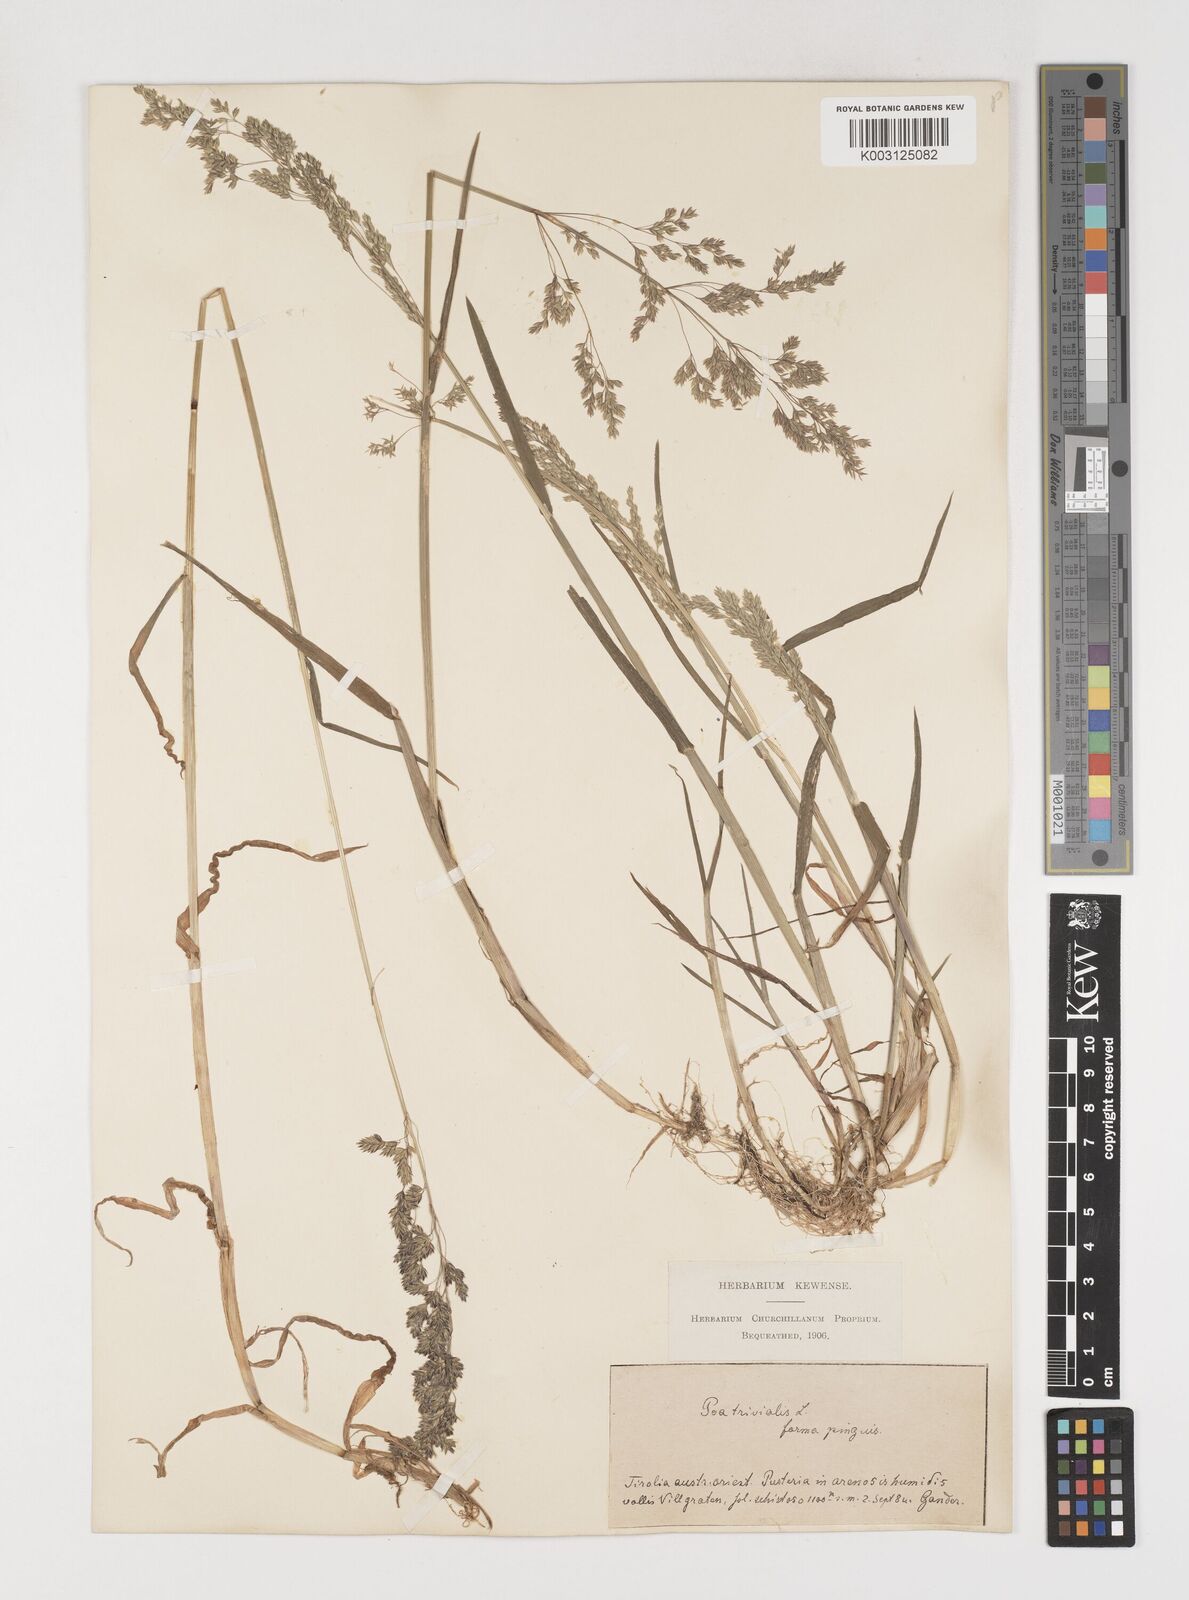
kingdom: Plantae
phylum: Tracheophyta
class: Liliopsida
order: Poales
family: Poaceae
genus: Poa
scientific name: Poa trivialis
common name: Rough bluegrass
